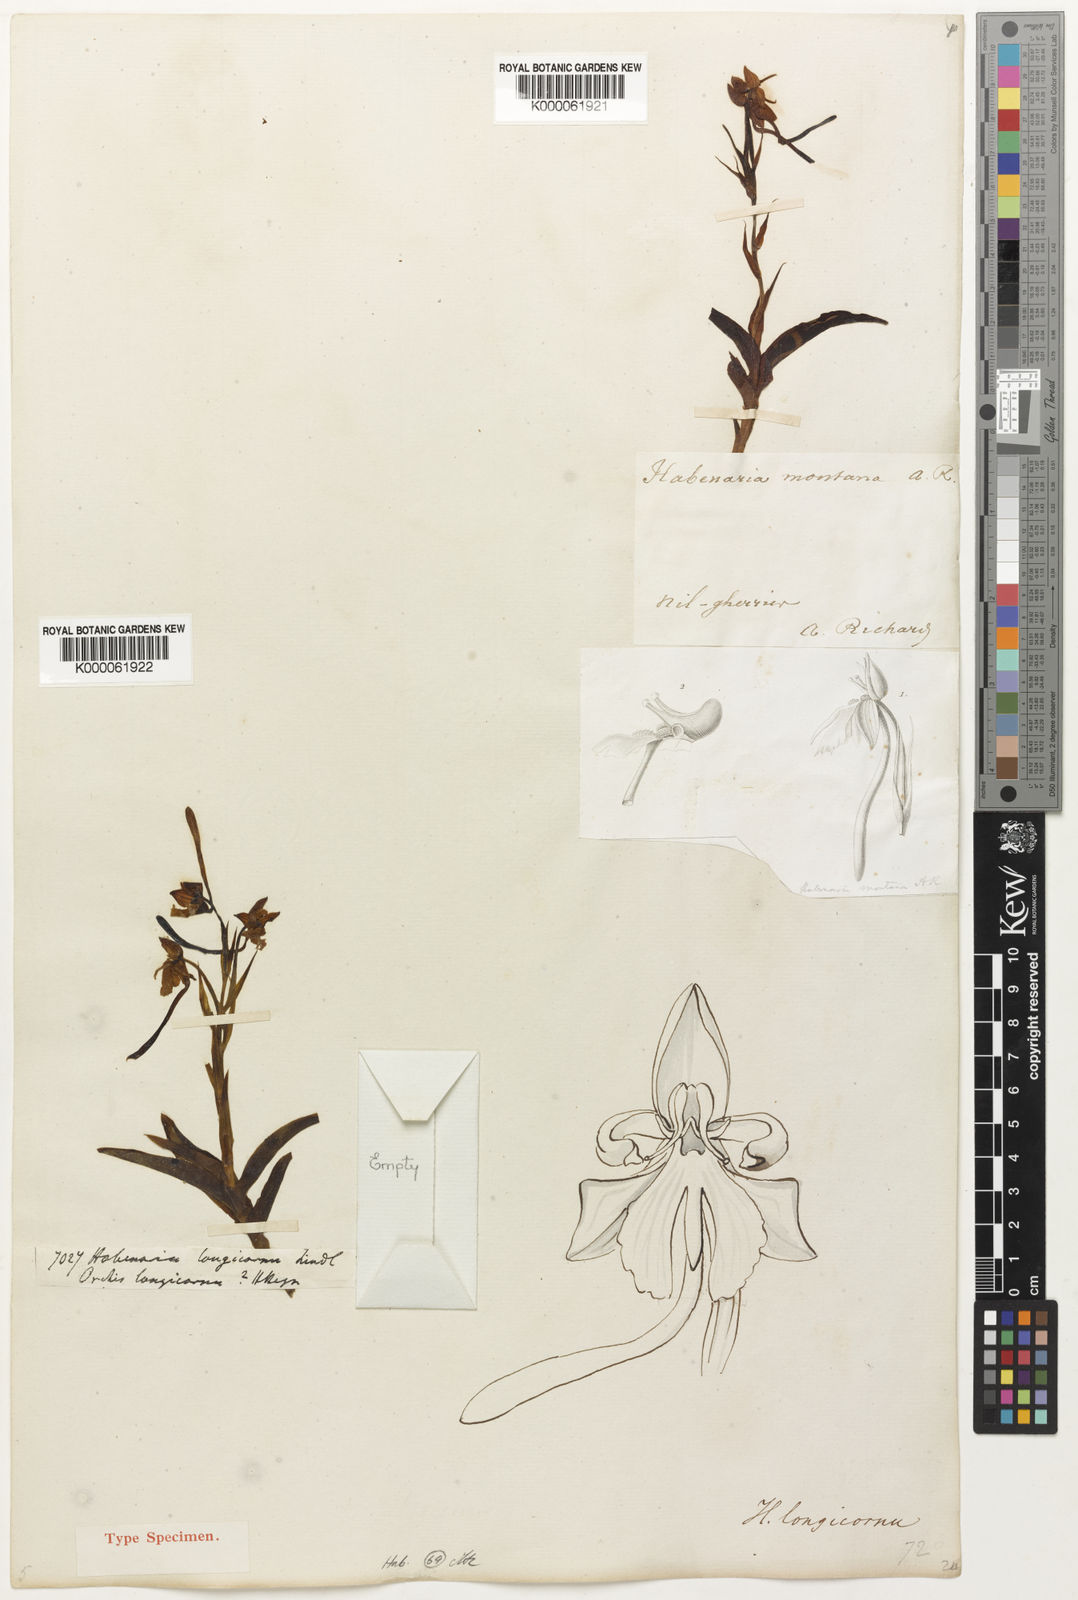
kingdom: Plantae
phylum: Tracheophyta
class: Liliopsida
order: Asparagales
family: Orchidaceae
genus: Habenaria
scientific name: Habenaria longicornu
